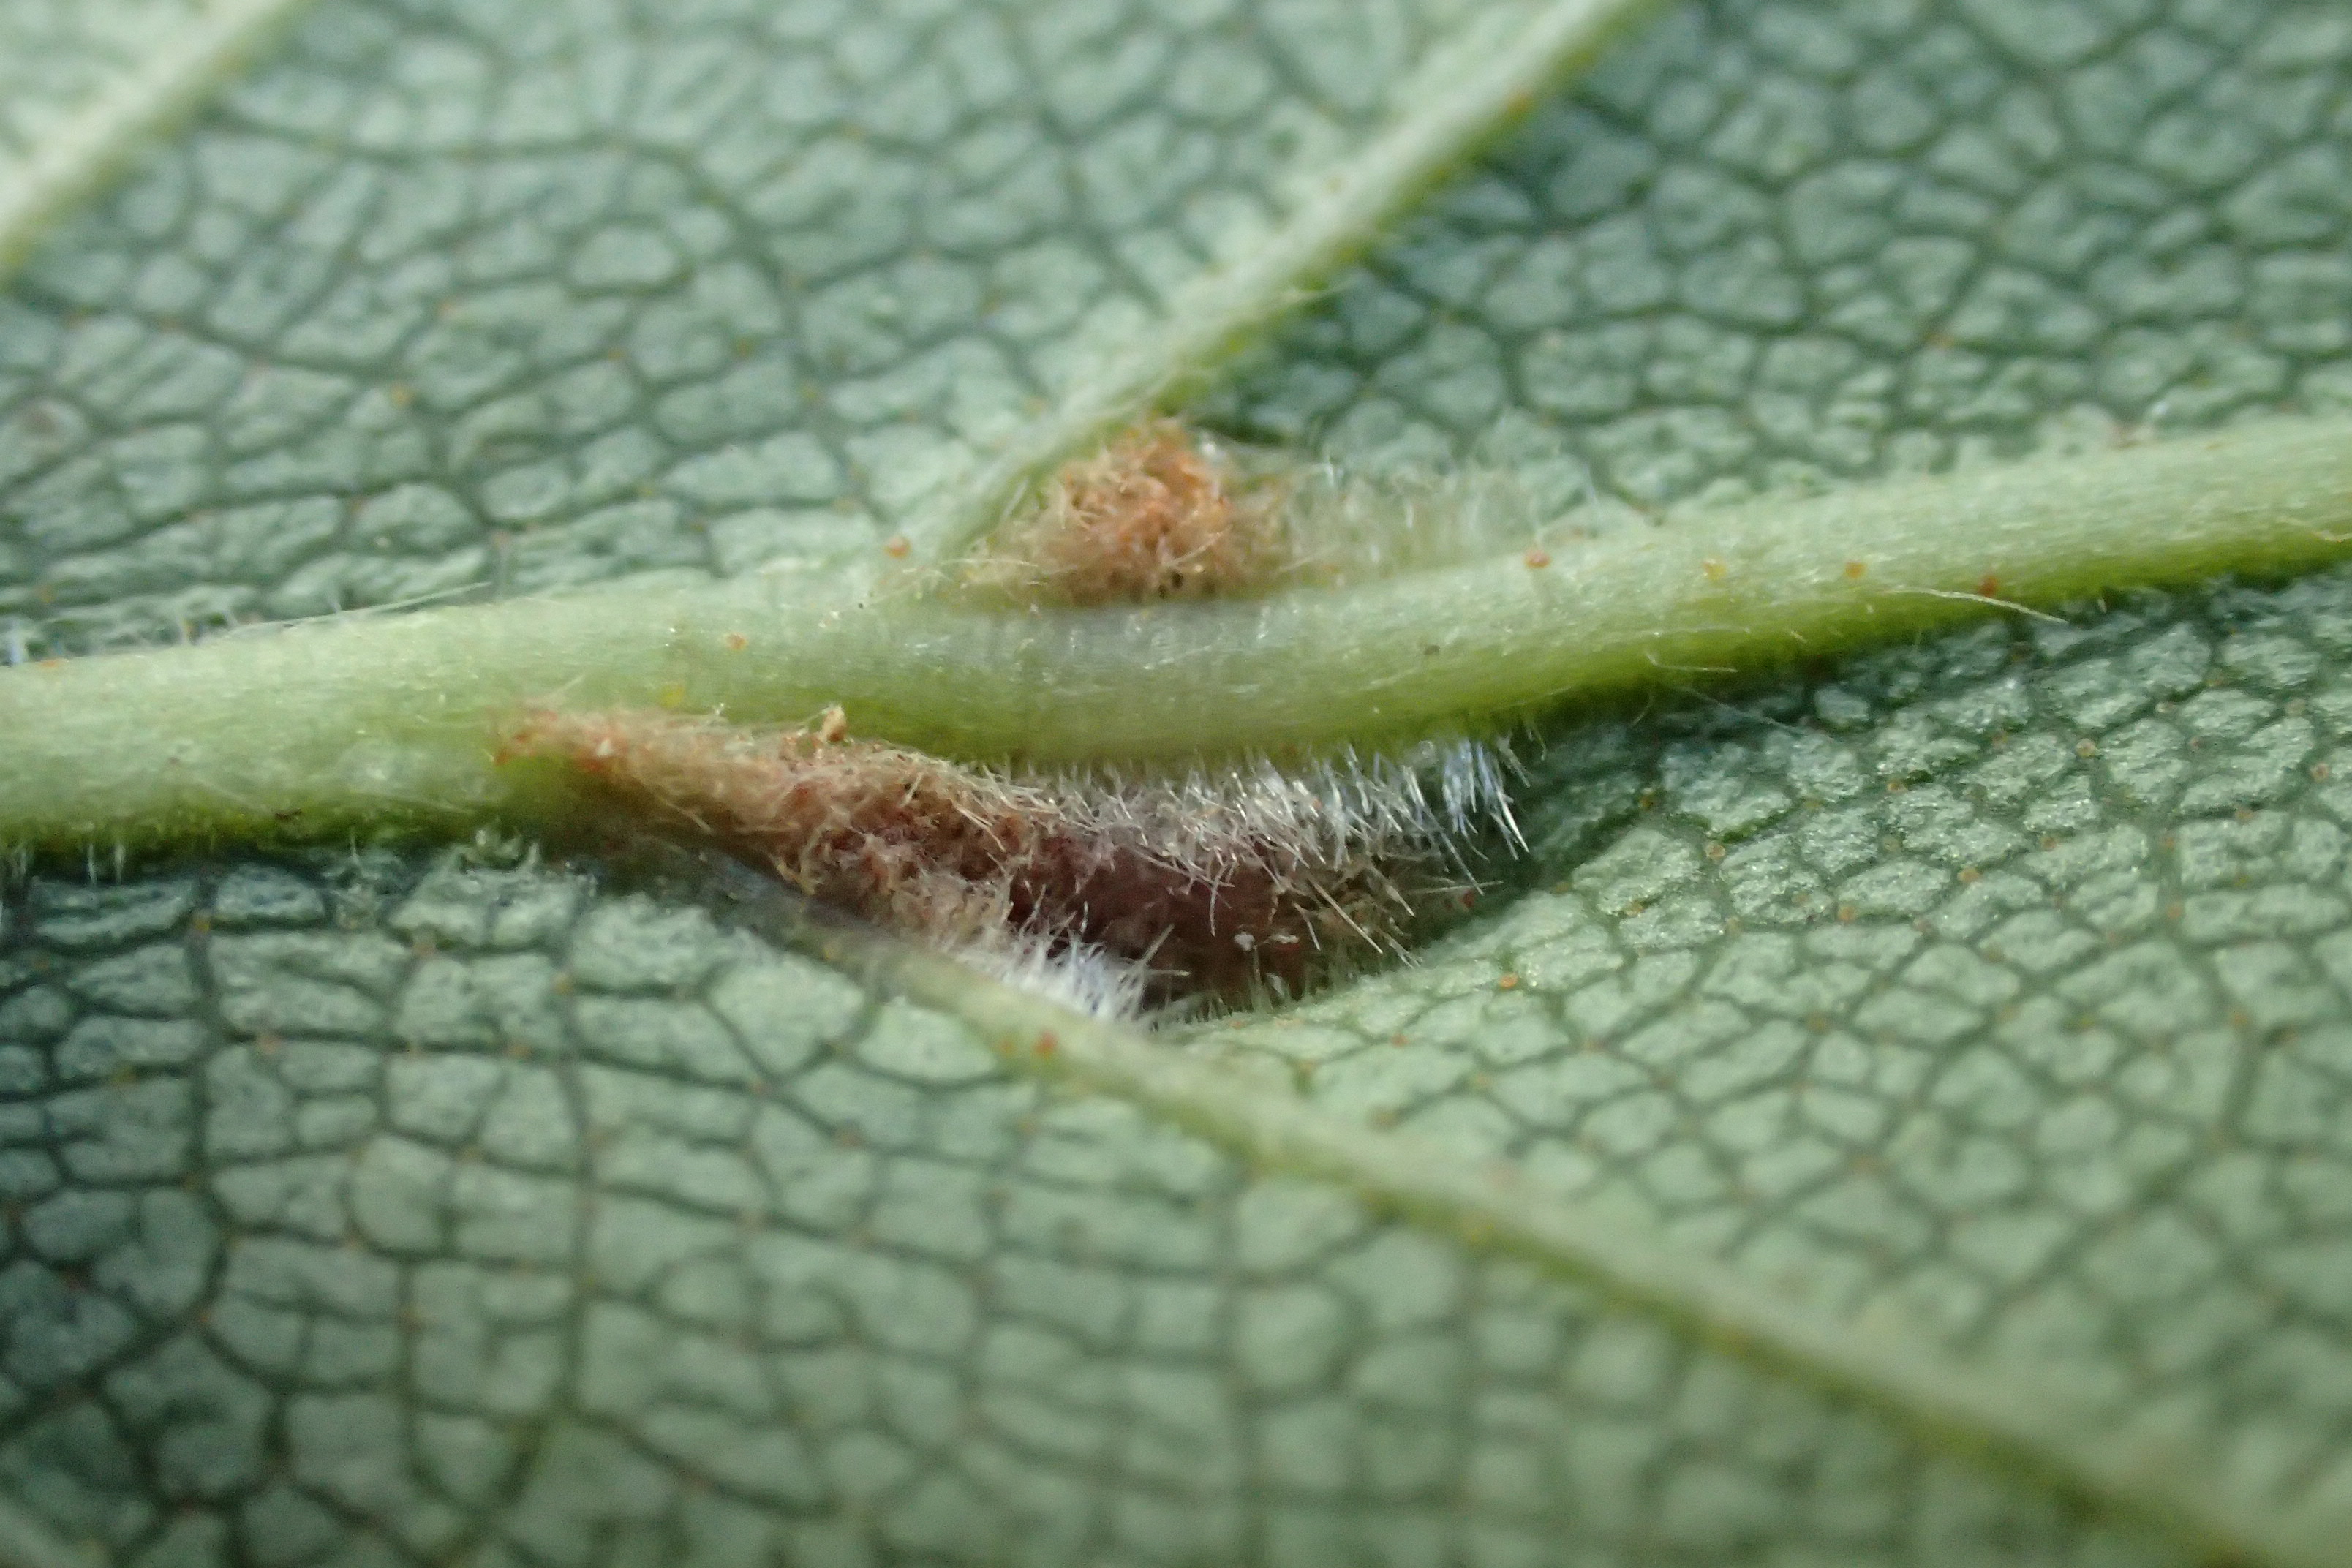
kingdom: Animalia
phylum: Arthropoda
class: Arachnida
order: Trombidiformes
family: Eriophyidae
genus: Aculus
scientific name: Aculus leionotus
